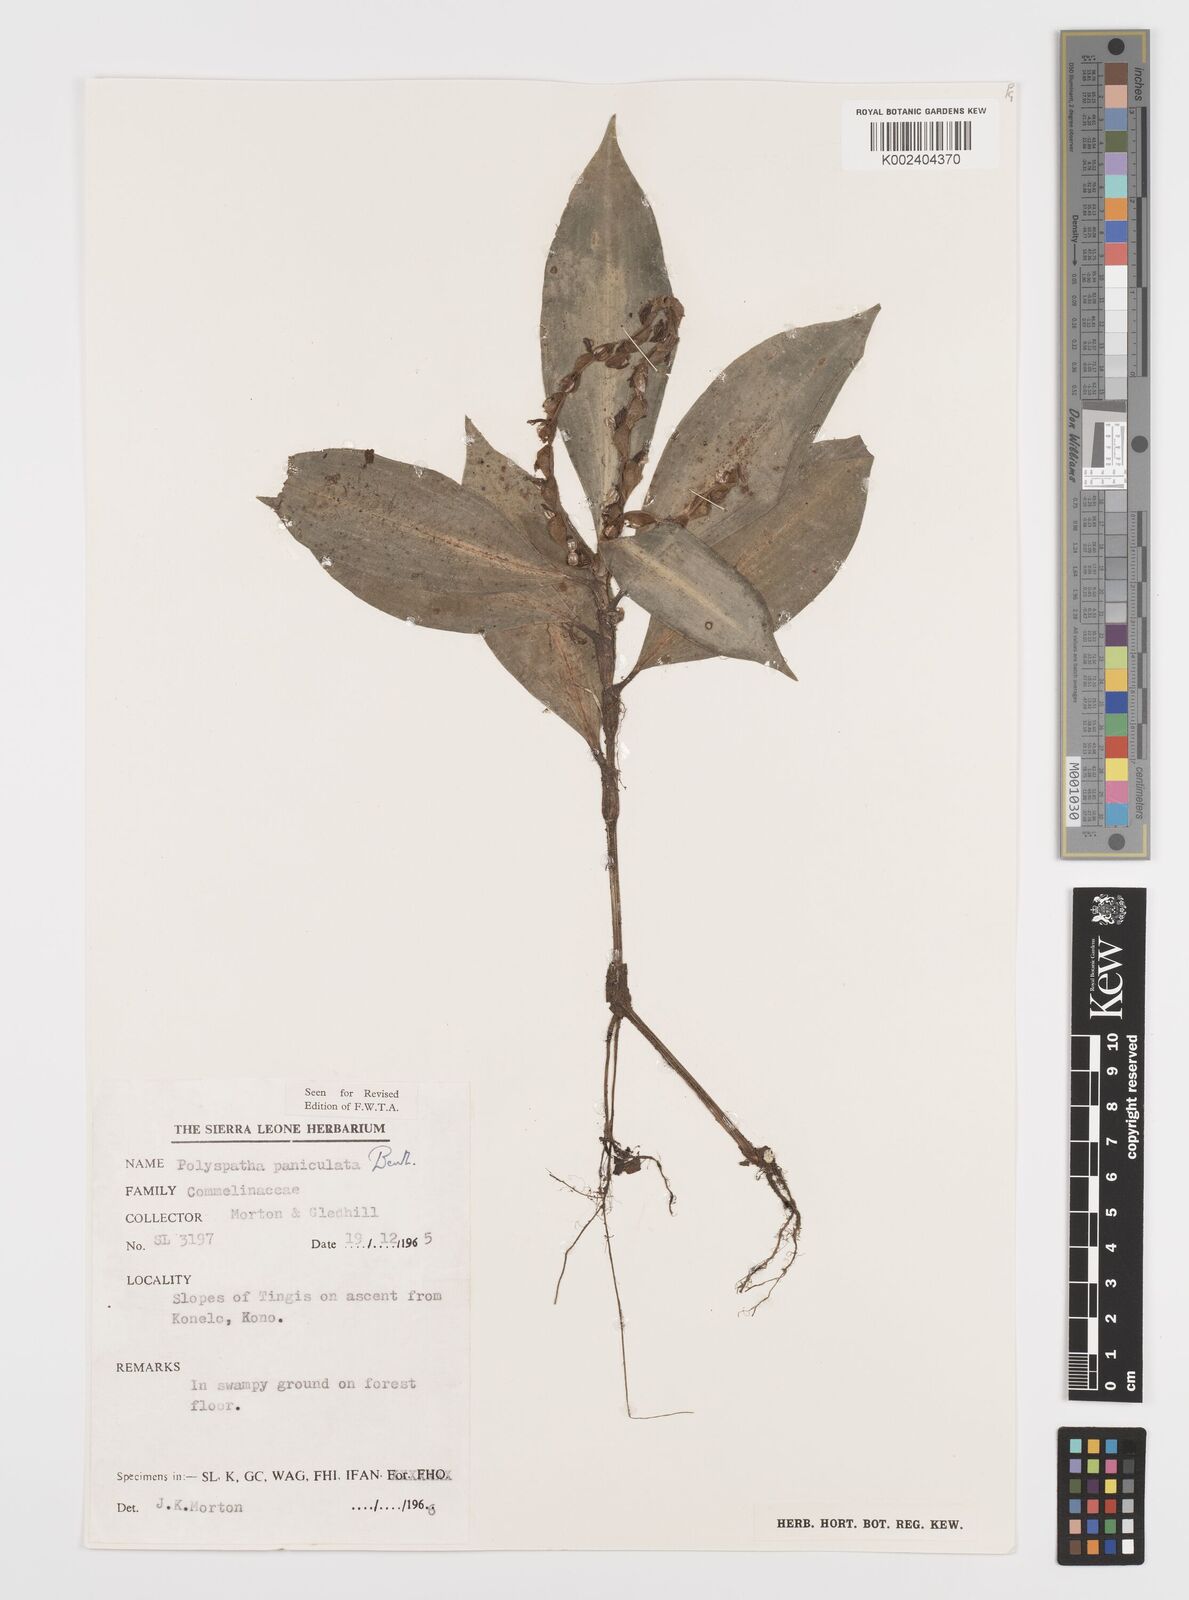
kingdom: Plantae
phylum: Tracheophyta
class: Liliopsida
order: Commelinales
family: Commelinaceae
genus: Polyspatha
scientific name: Polyspatha paniculata
